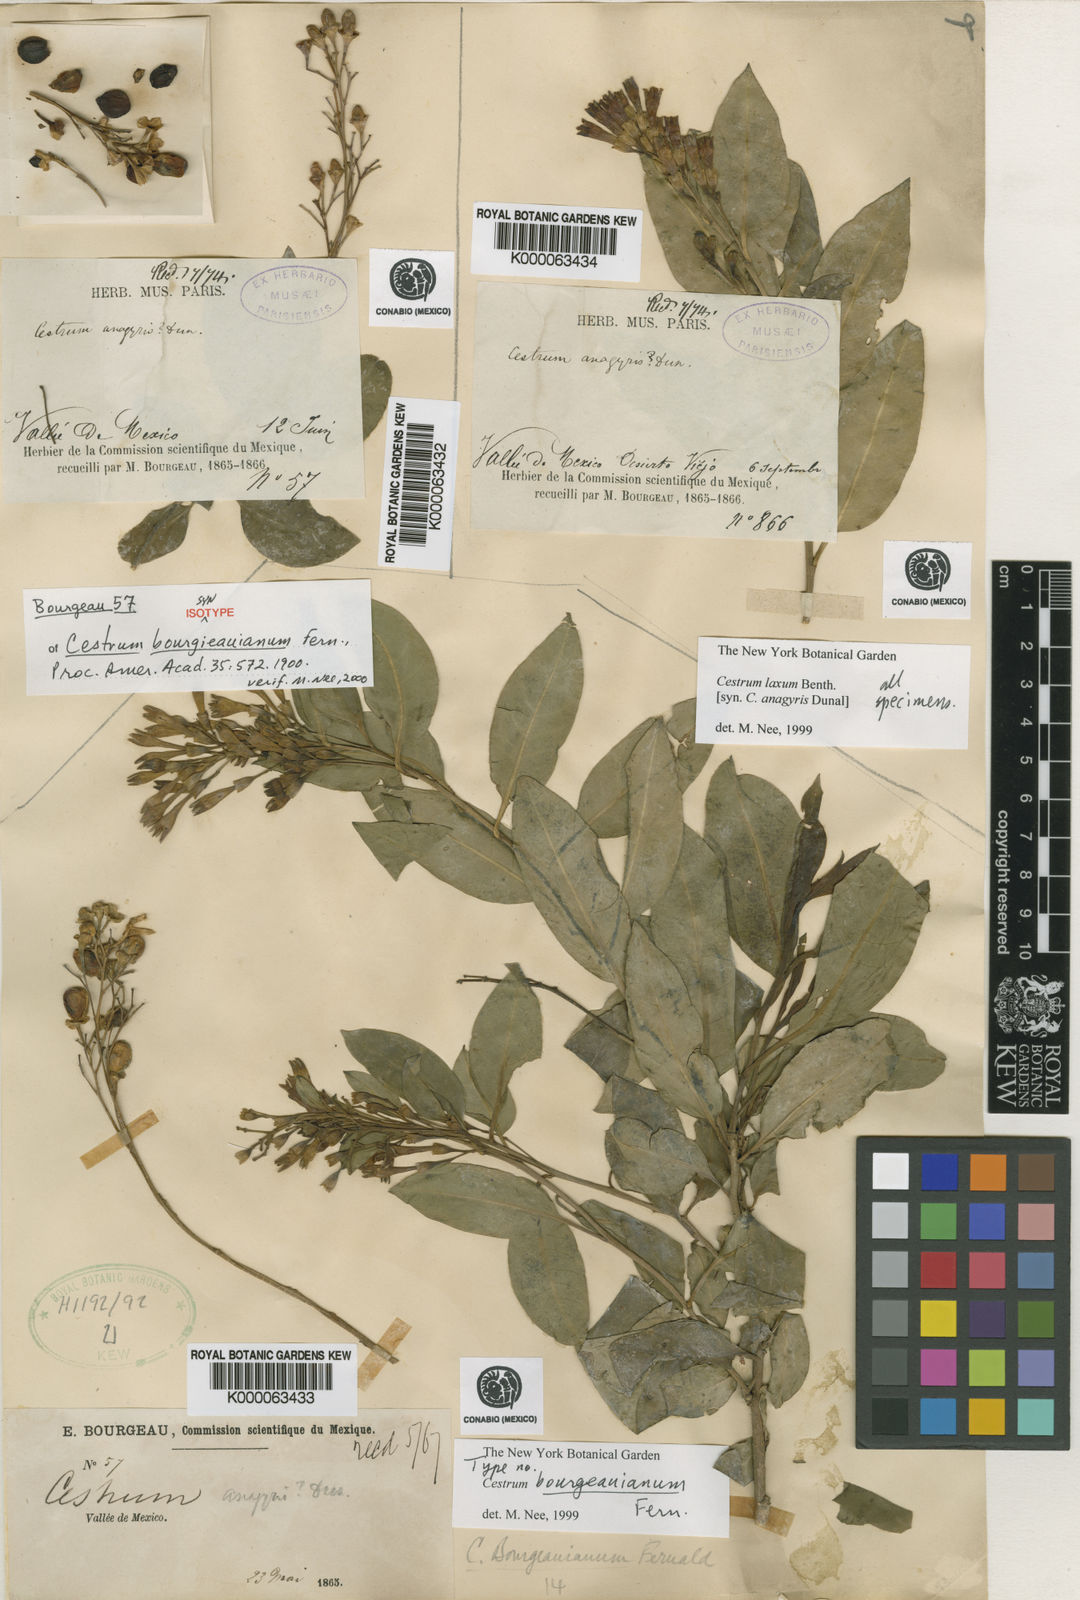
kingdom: Plantae
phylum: Tracheophyta
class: Magnoliopsida
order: Solanales
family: Solanaceae
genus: Cestrum
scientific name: Cestrum aurantiacum
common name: Orange cestrum
